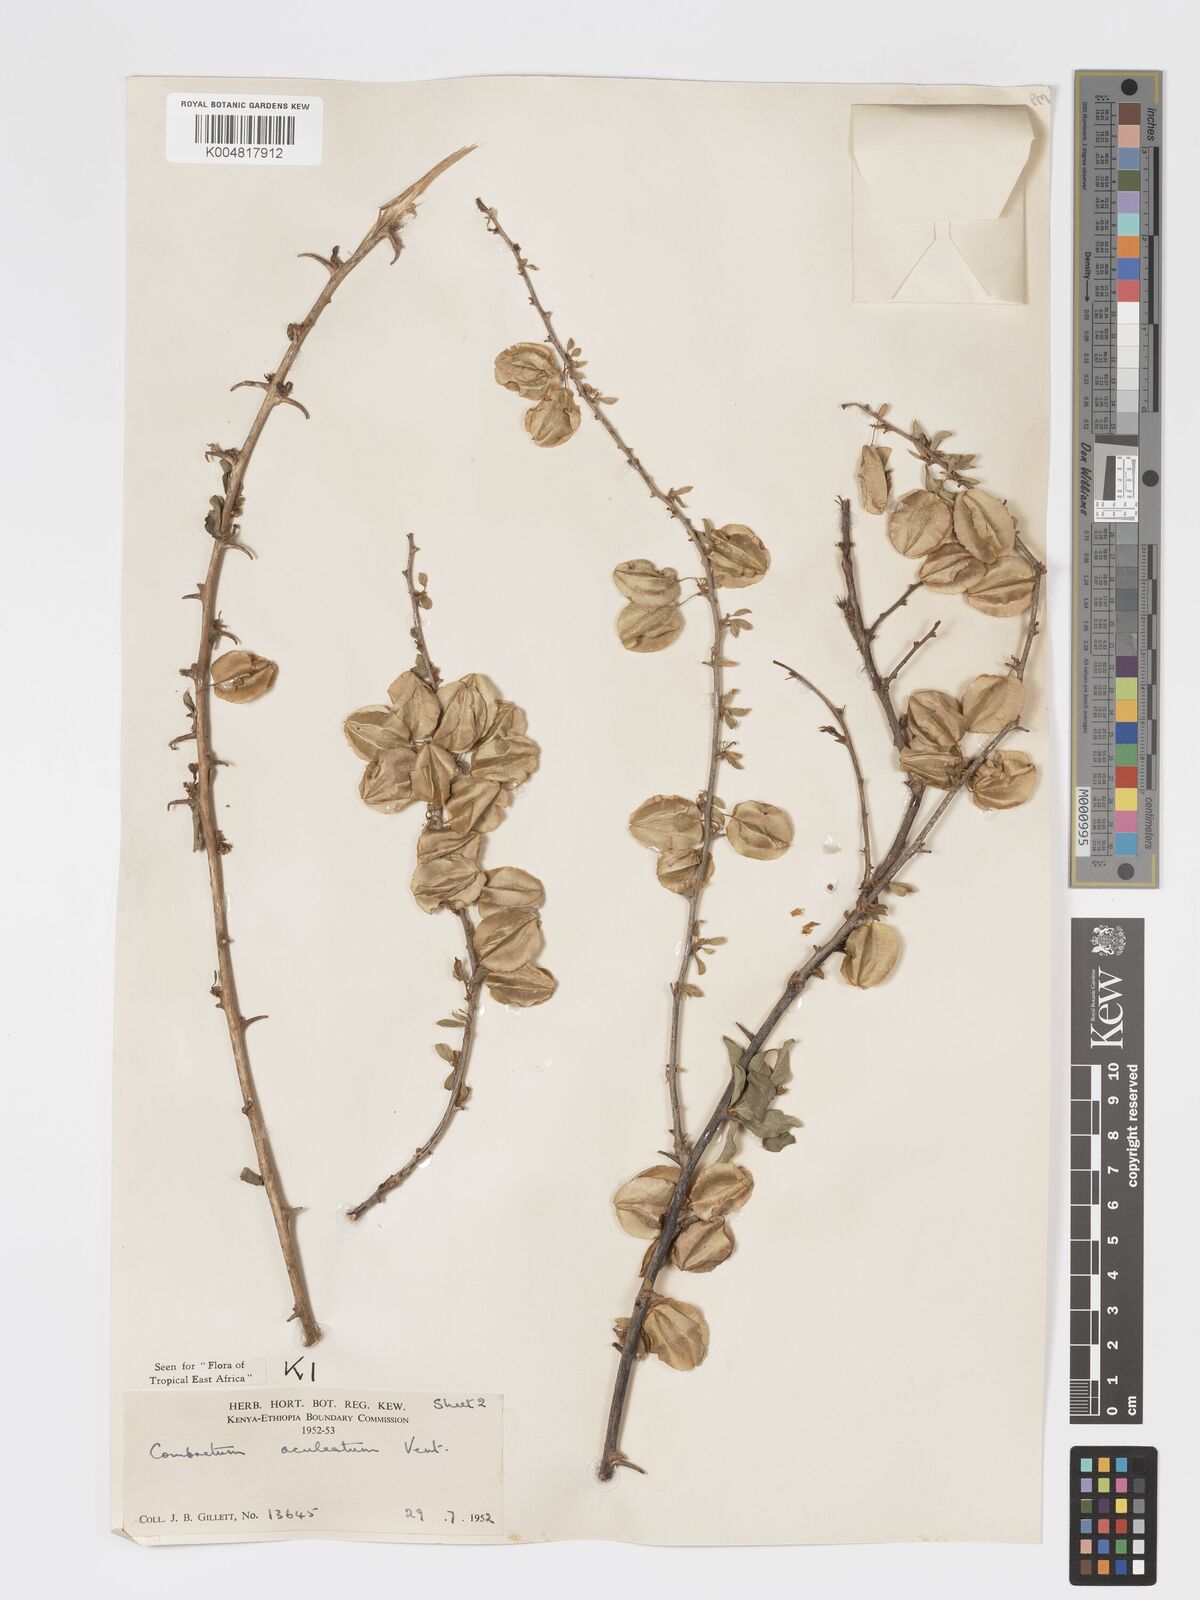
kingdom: Plantae
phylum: Tracheophyta
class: Magnoliopsida
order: Myrtales
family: Combretaceae
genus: Combretum
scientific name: Combretum aculeatum
